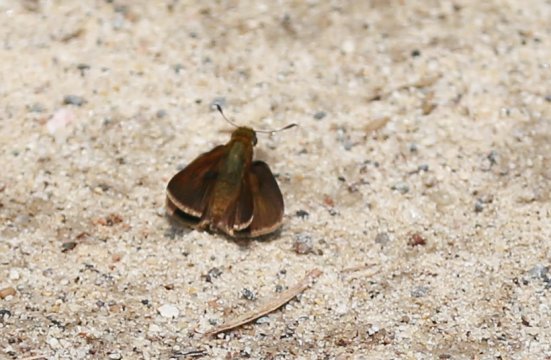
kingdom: Animalia
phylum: Arthropoda
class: Insecta
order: Lepidoptera
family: Hesperiidae
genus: Euphyes
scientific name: Euphyes vestris
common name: Dun Skipper
